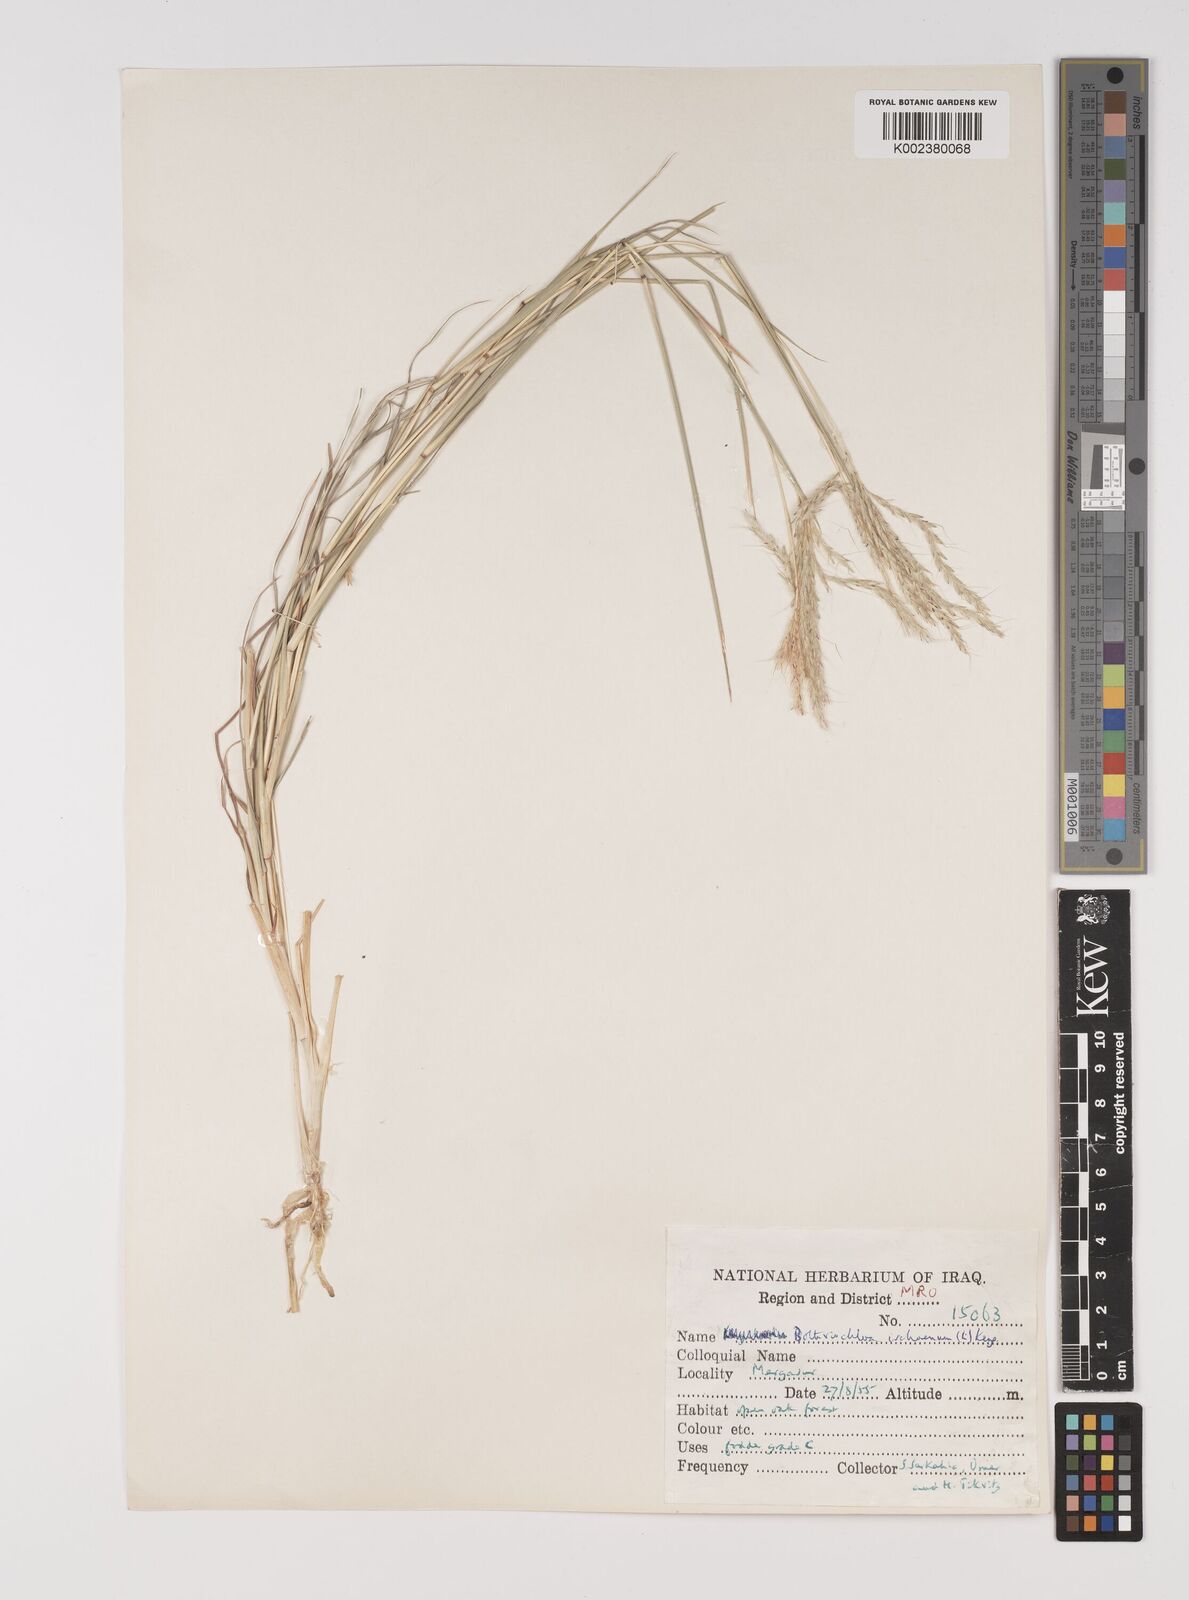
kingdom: Plantae
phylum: Tracheophyta
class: Liliopsida
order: Poales
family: Poaceae
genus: Bothriochloa
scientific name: Bothriochloa ischaemum
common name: Yellow bluestem
